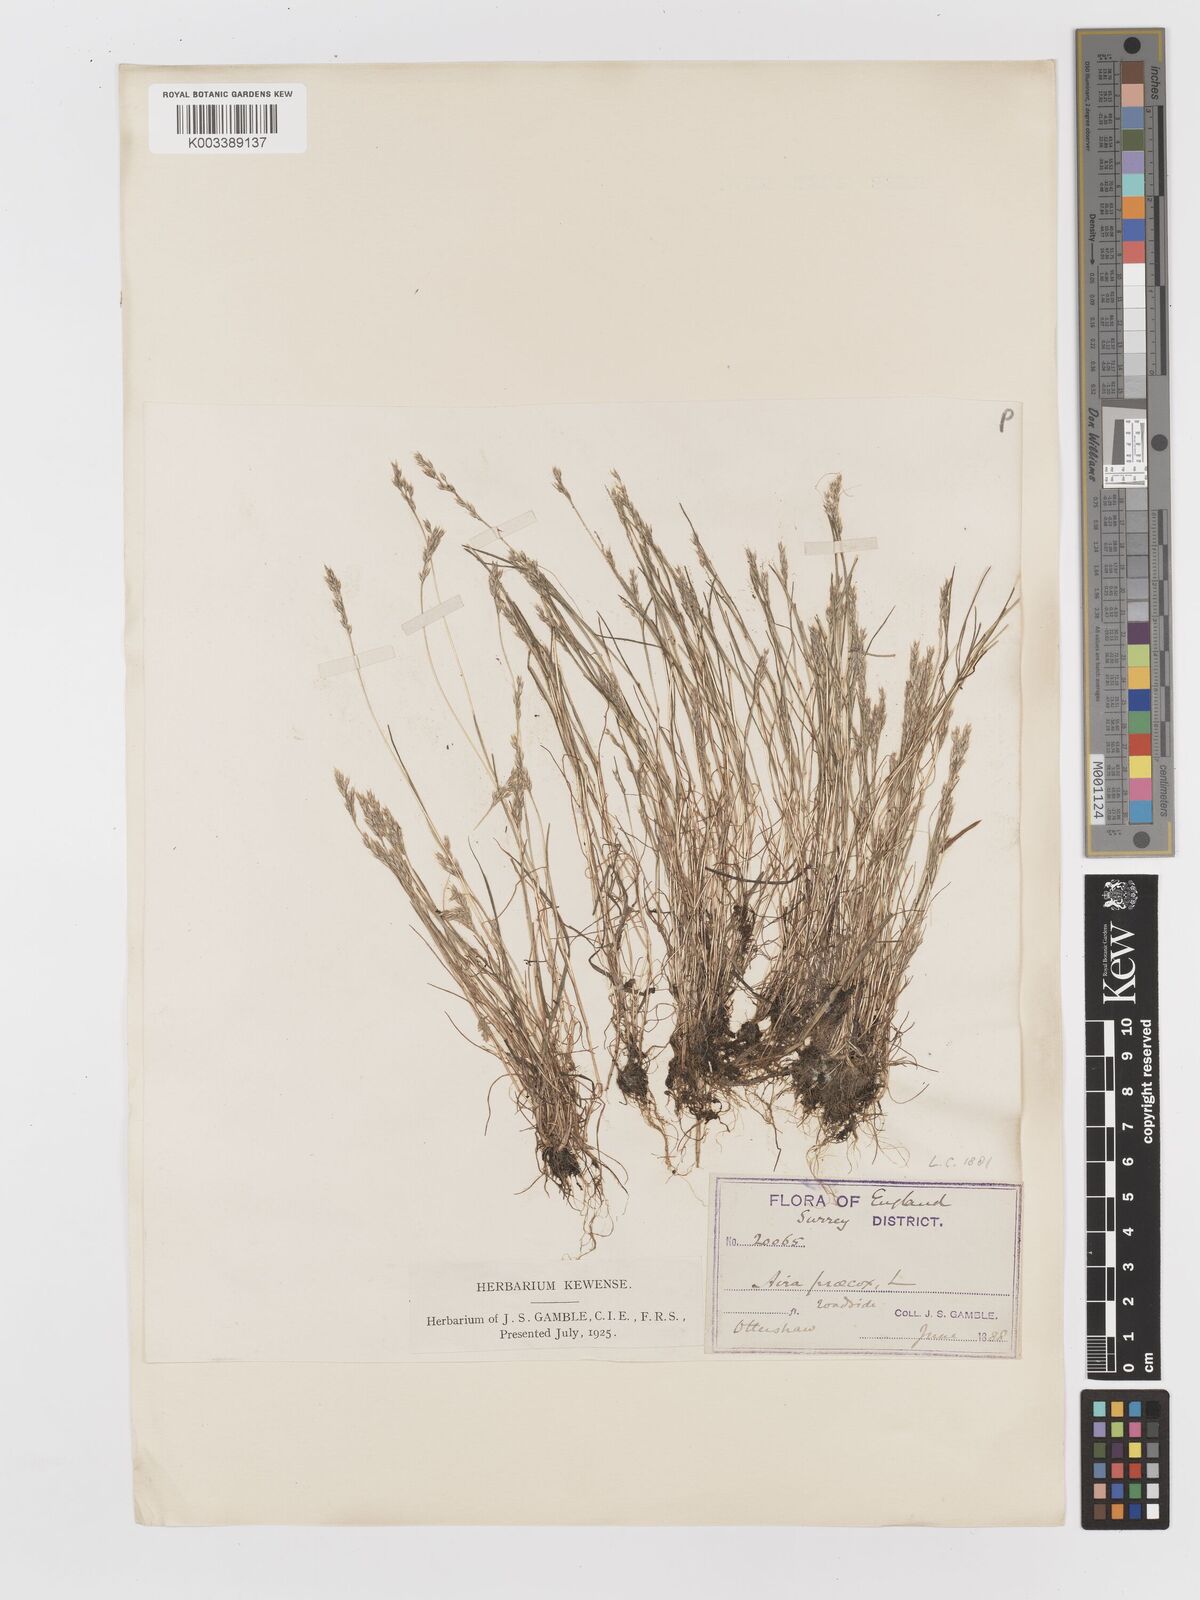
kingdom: Plantae
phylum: Tracheophyta
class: Liliopsida
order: Poales
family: Poaceae
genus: Aira
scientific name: Aira praecox
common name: Early hair-grass
